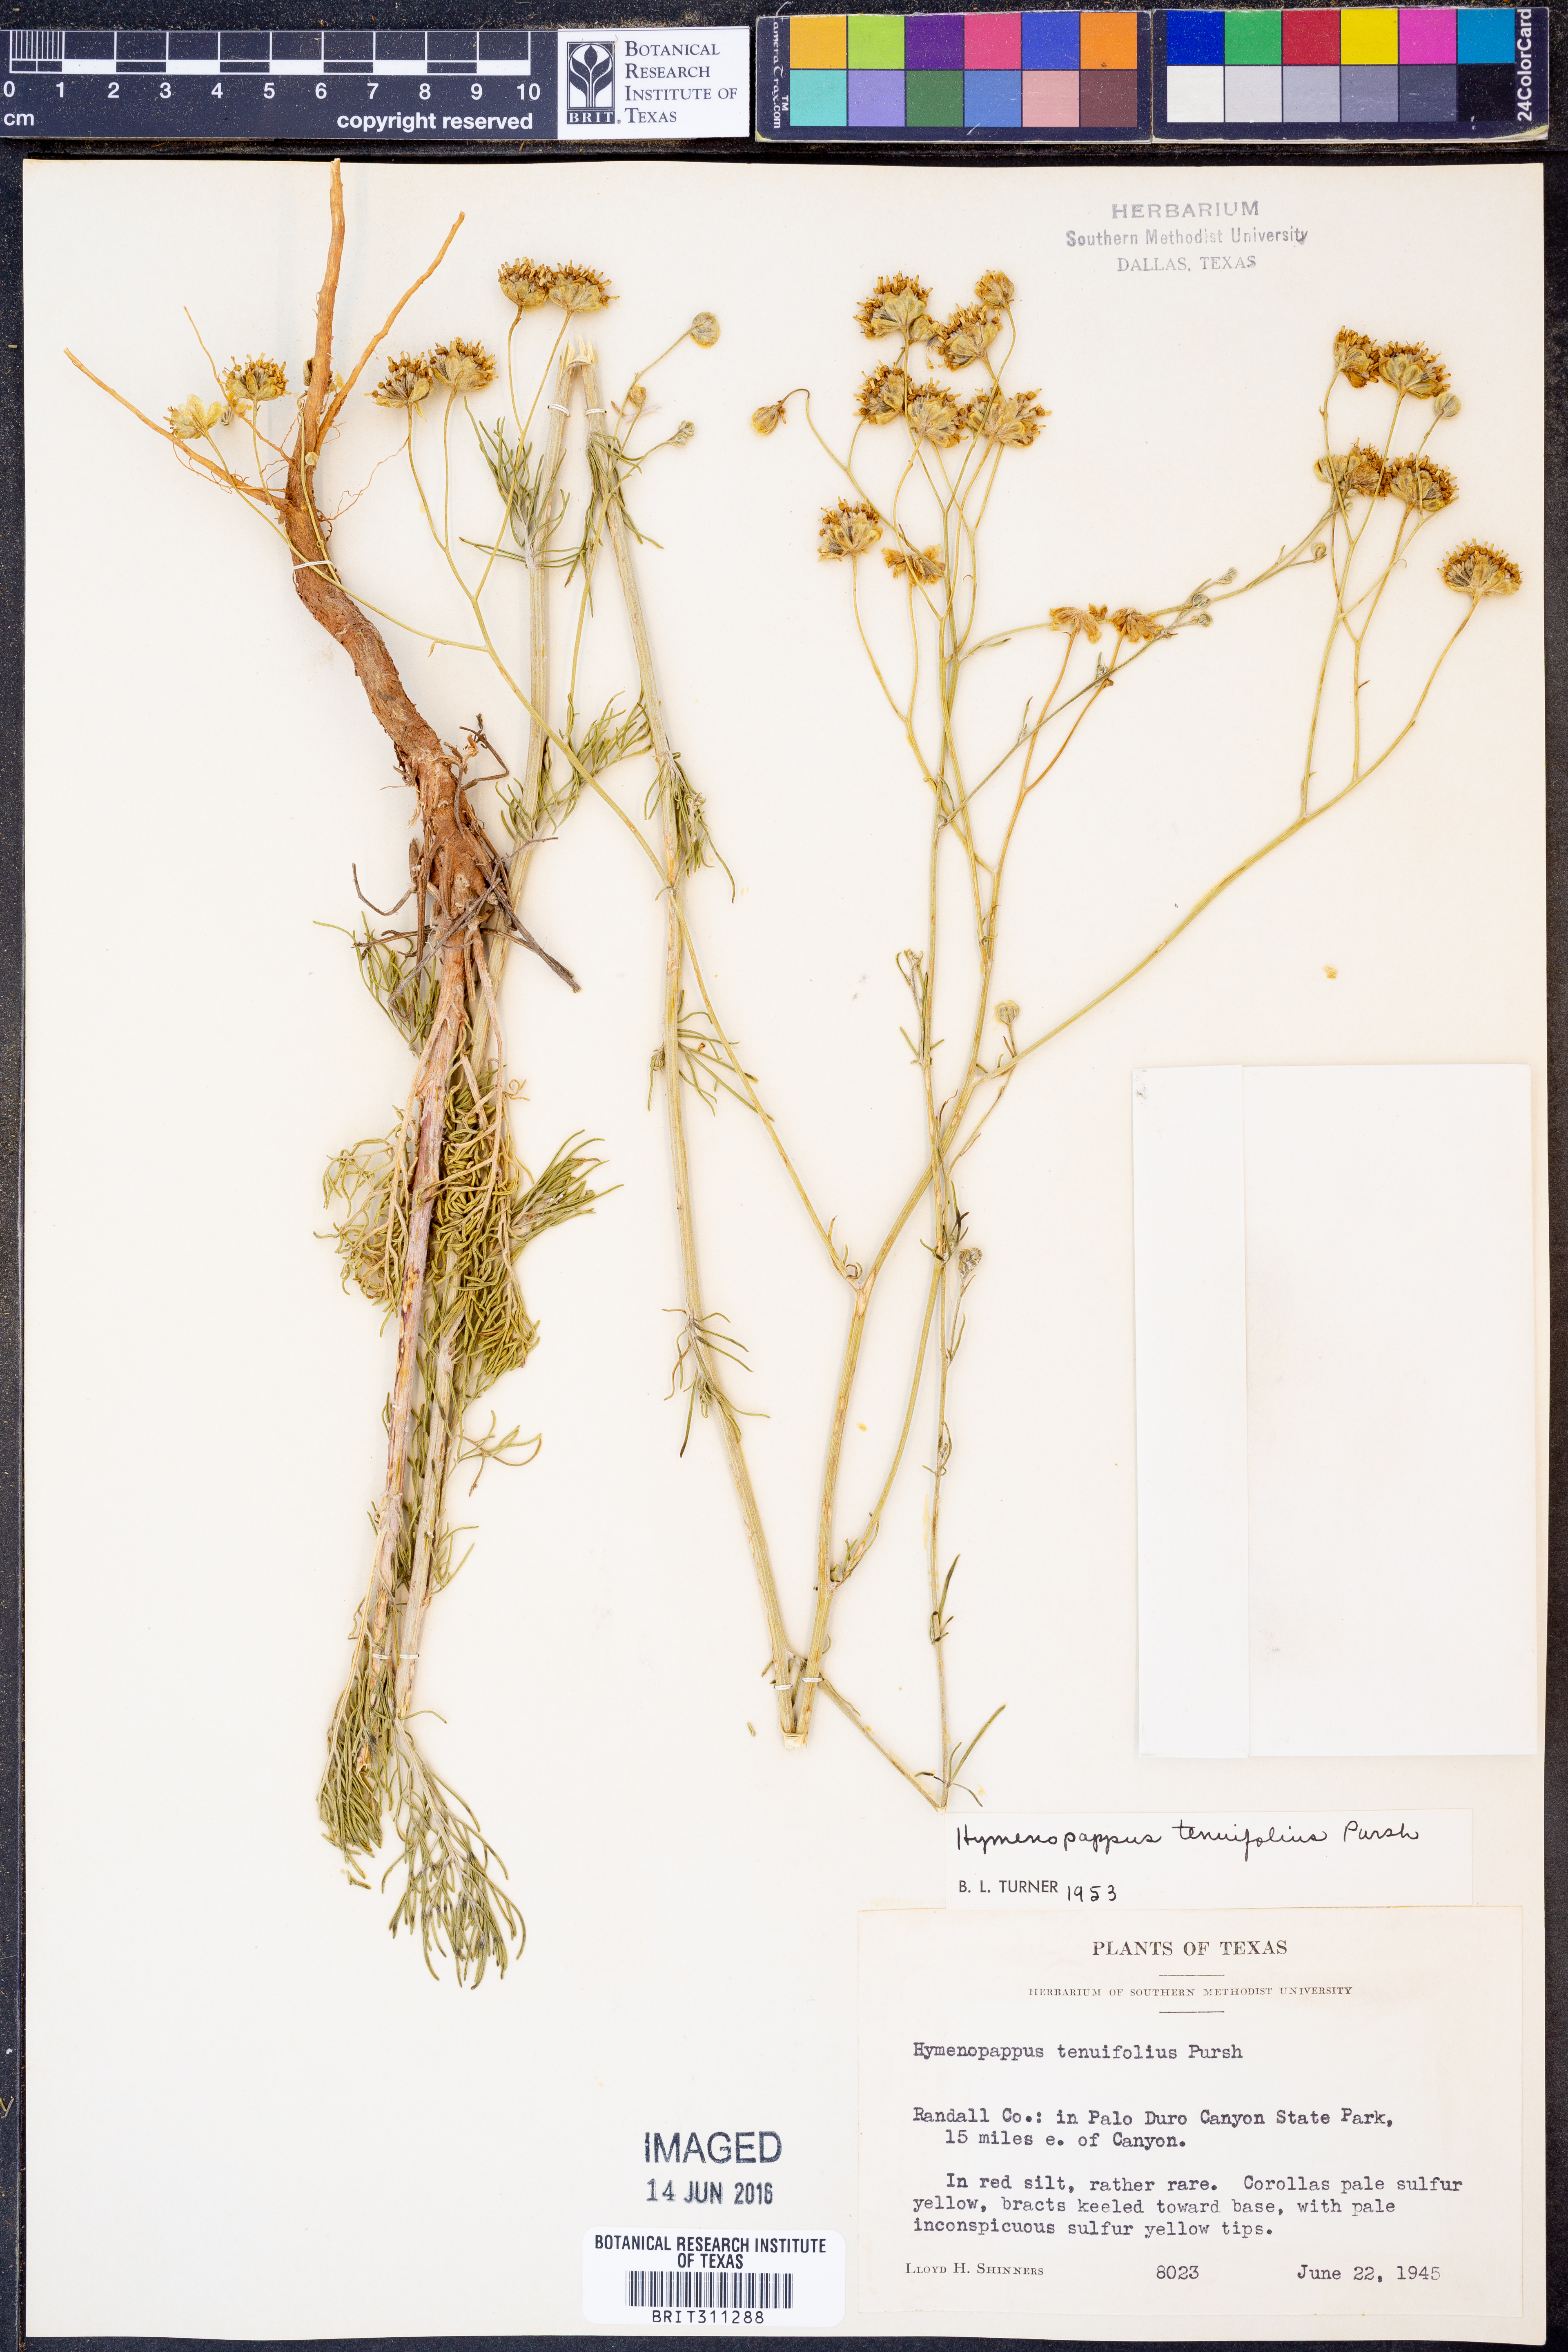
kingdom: Plantae
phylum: Tracheophyta
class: Magnoliopsida
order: Asterales
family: Asteraceae
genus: Hymenopappus
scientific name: Hymenopappus tenuifolius
